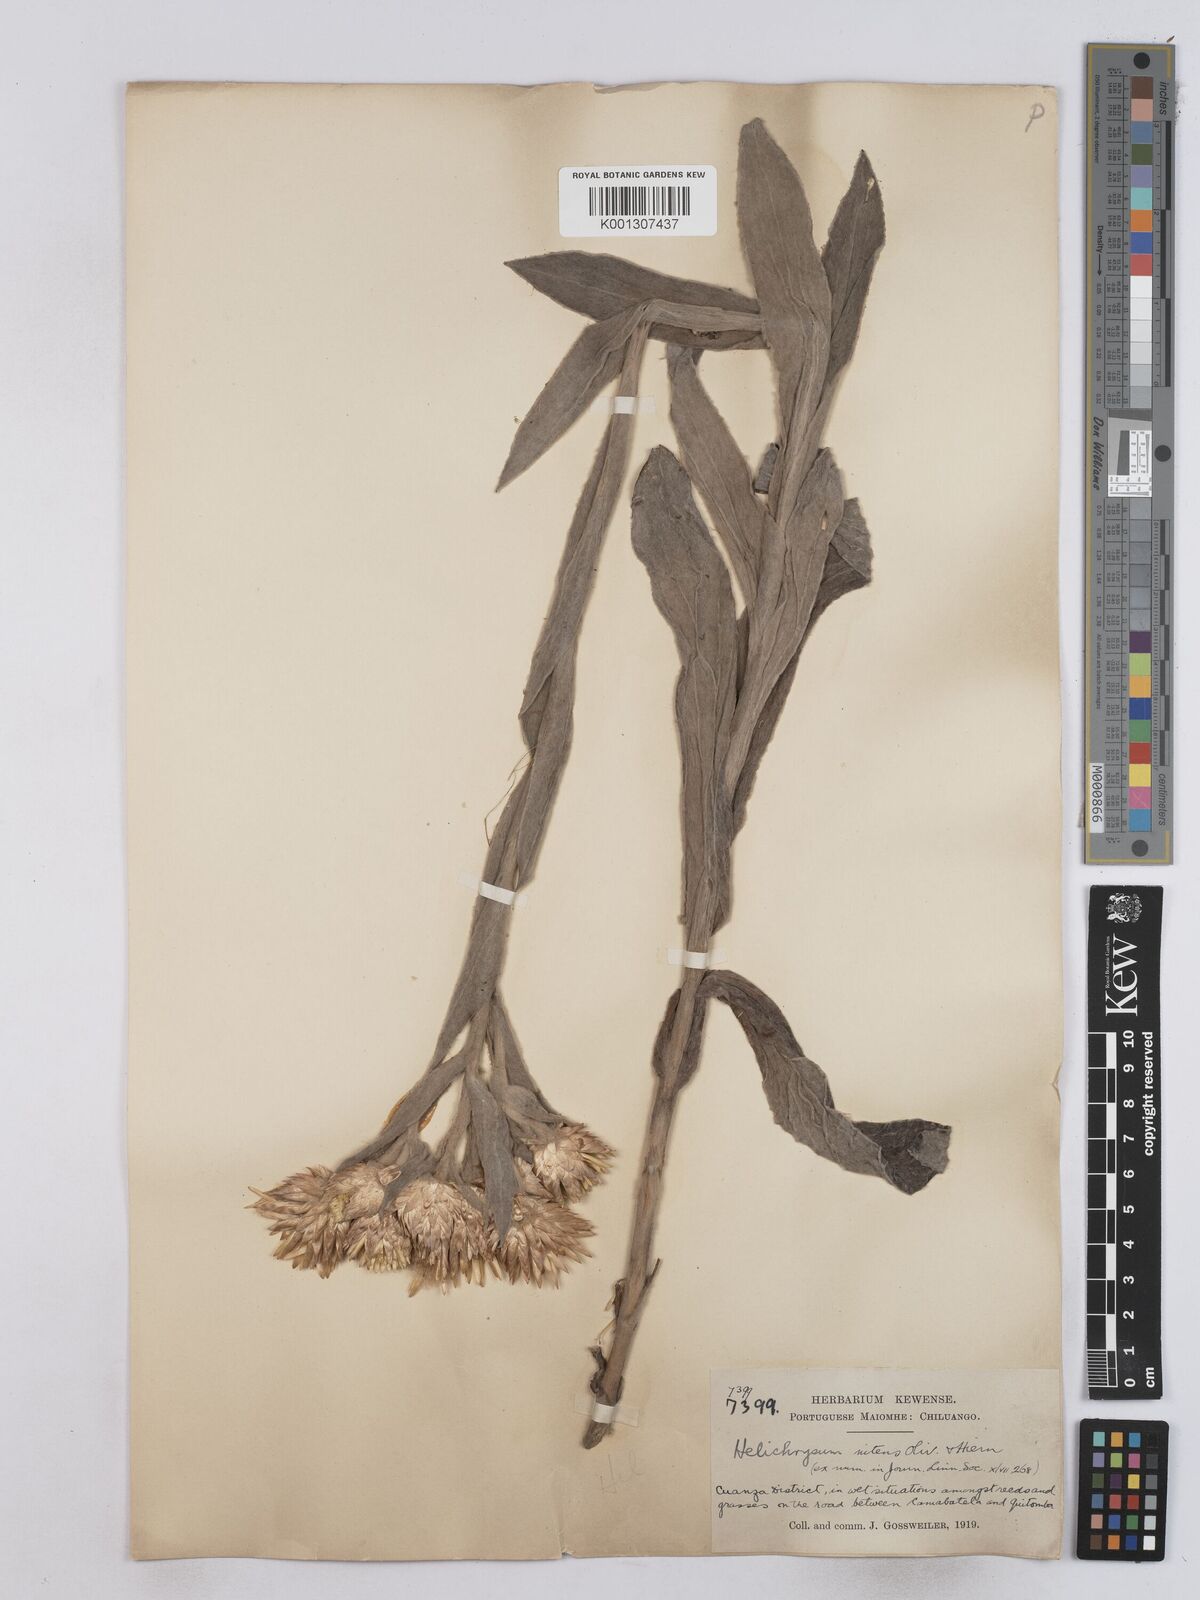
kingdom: Plantae
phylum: Tracheophyta
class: Magnoliopsida
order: Asterales
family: Asteraceae
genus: Helichrysum
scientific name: Helichrysum nitens
